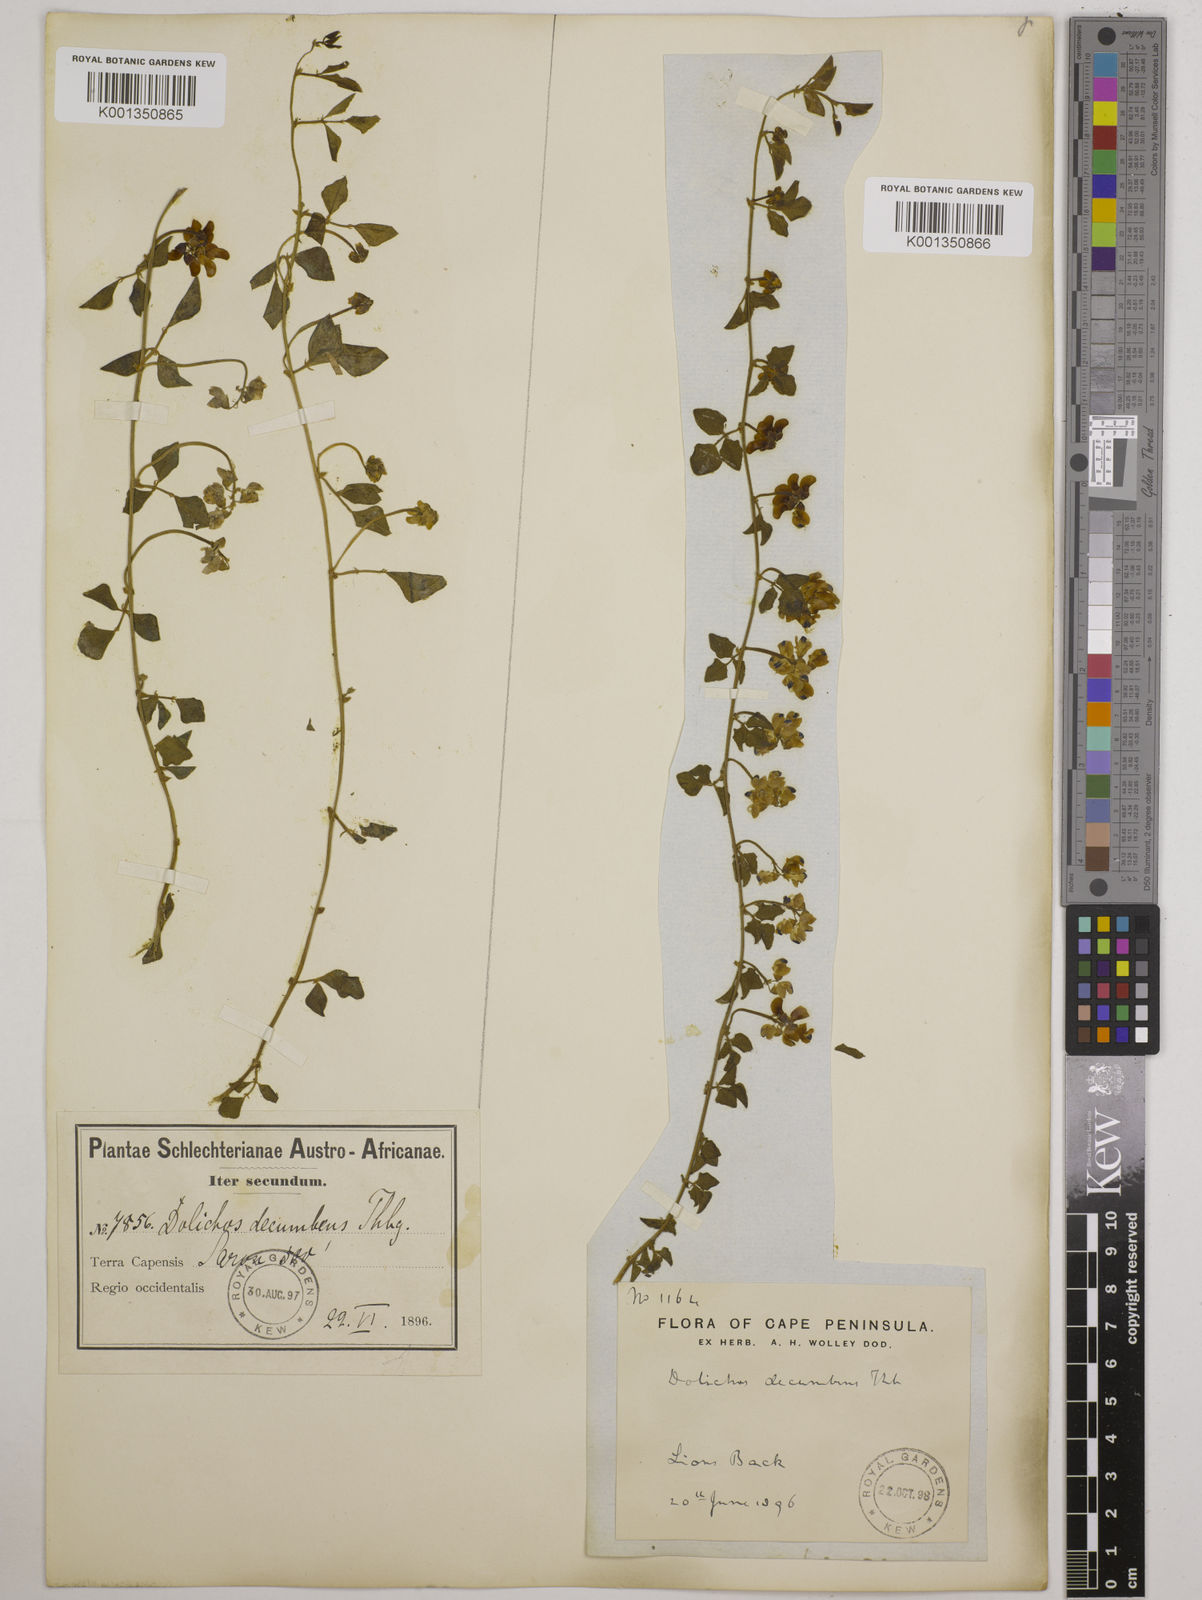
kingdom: Plantae
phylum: Tracheophyta
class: Magnoliopsida
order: Fabales
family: Fabaceae
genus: Dolichos
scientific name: Dolichos decumbens
